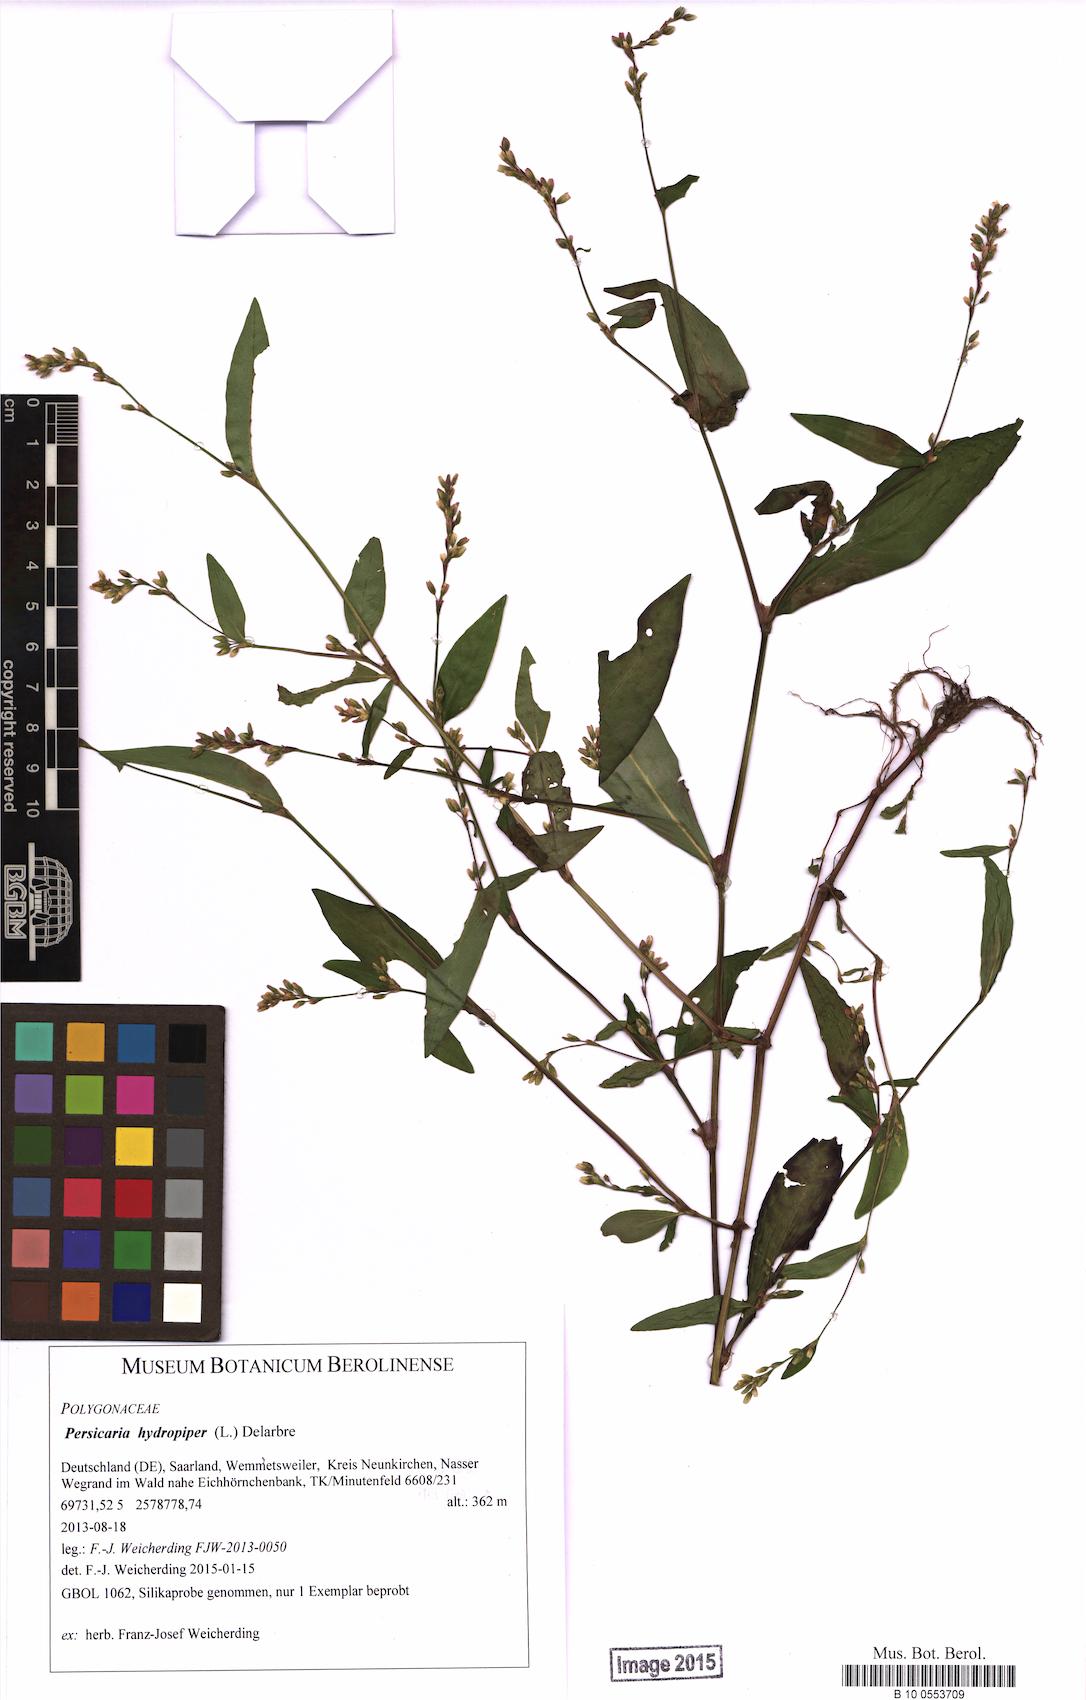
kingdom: Plantae
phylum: Tracheophyta
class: Magnoliopsida
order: Caryophyllales
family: Polygonaceae
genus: Persicaria
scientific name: Persicaria hydropiper
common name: Water-pepper
